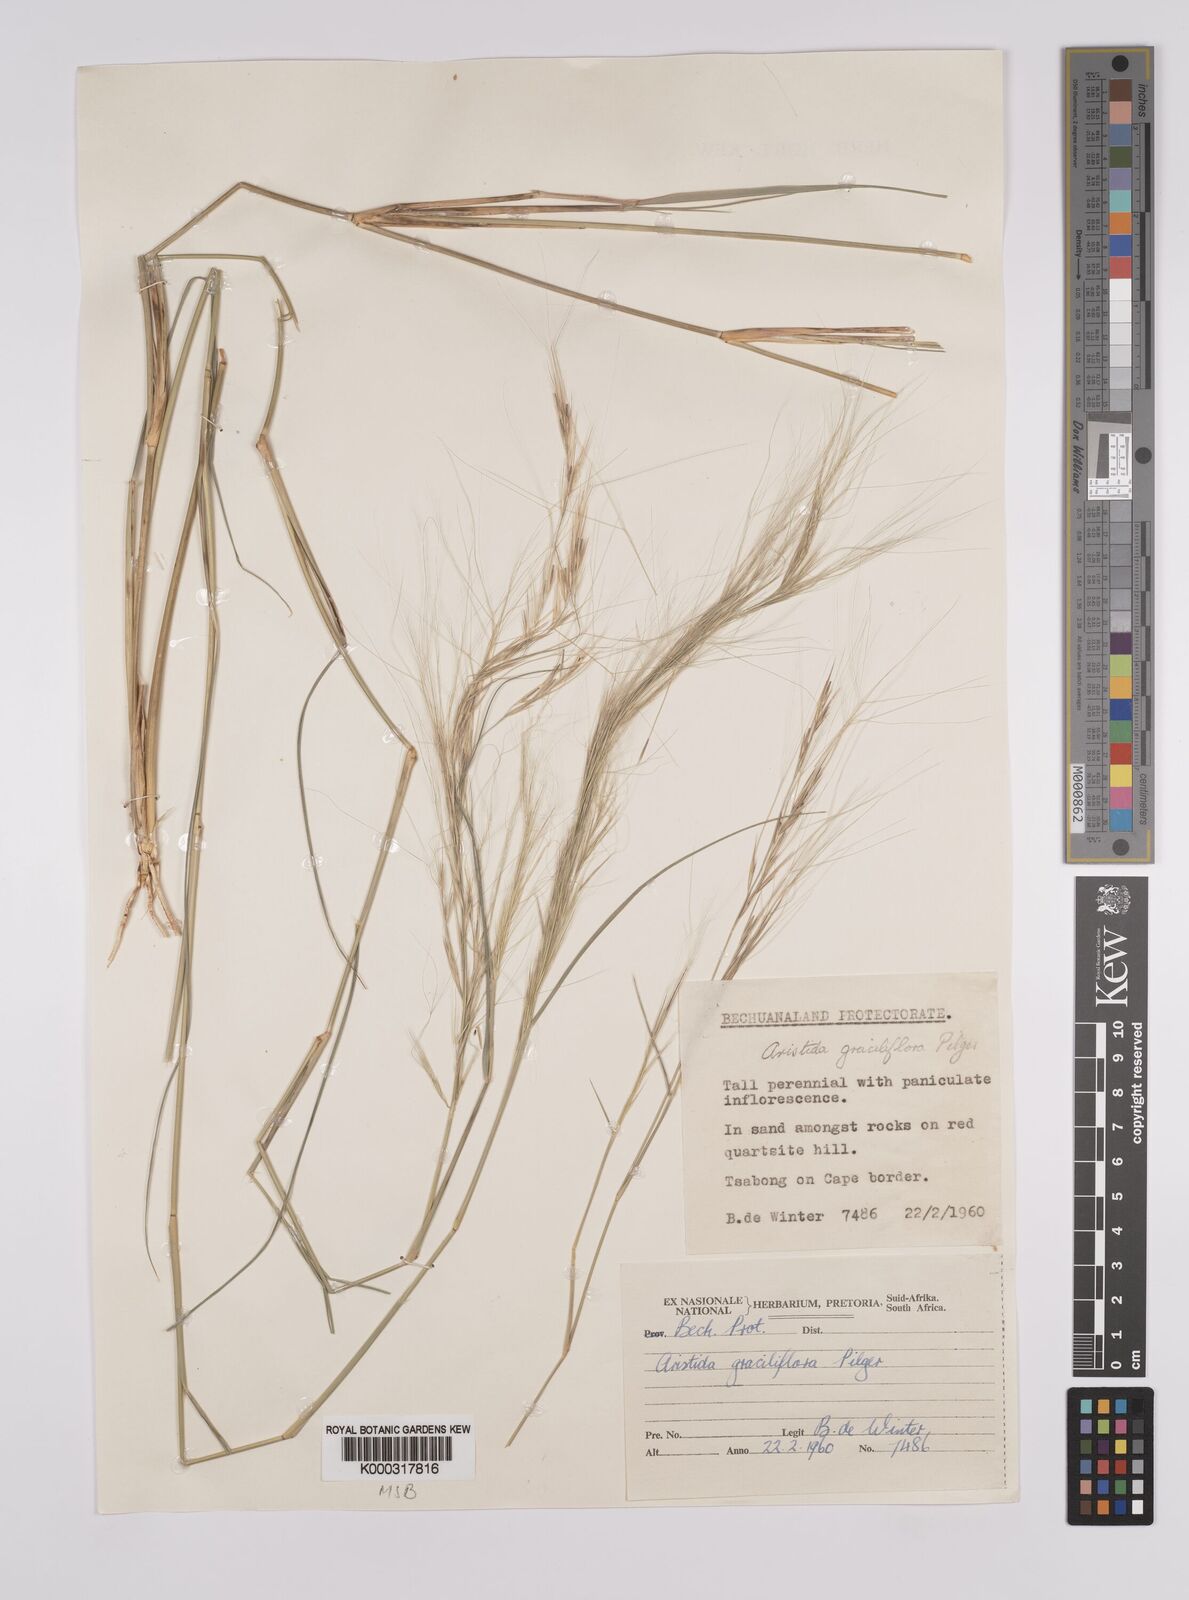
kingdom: Plantae
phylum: Tracheophyta
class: Liliopsida
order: Poales
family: Poaceae
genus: Aristida
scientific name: Aristida stipitata
